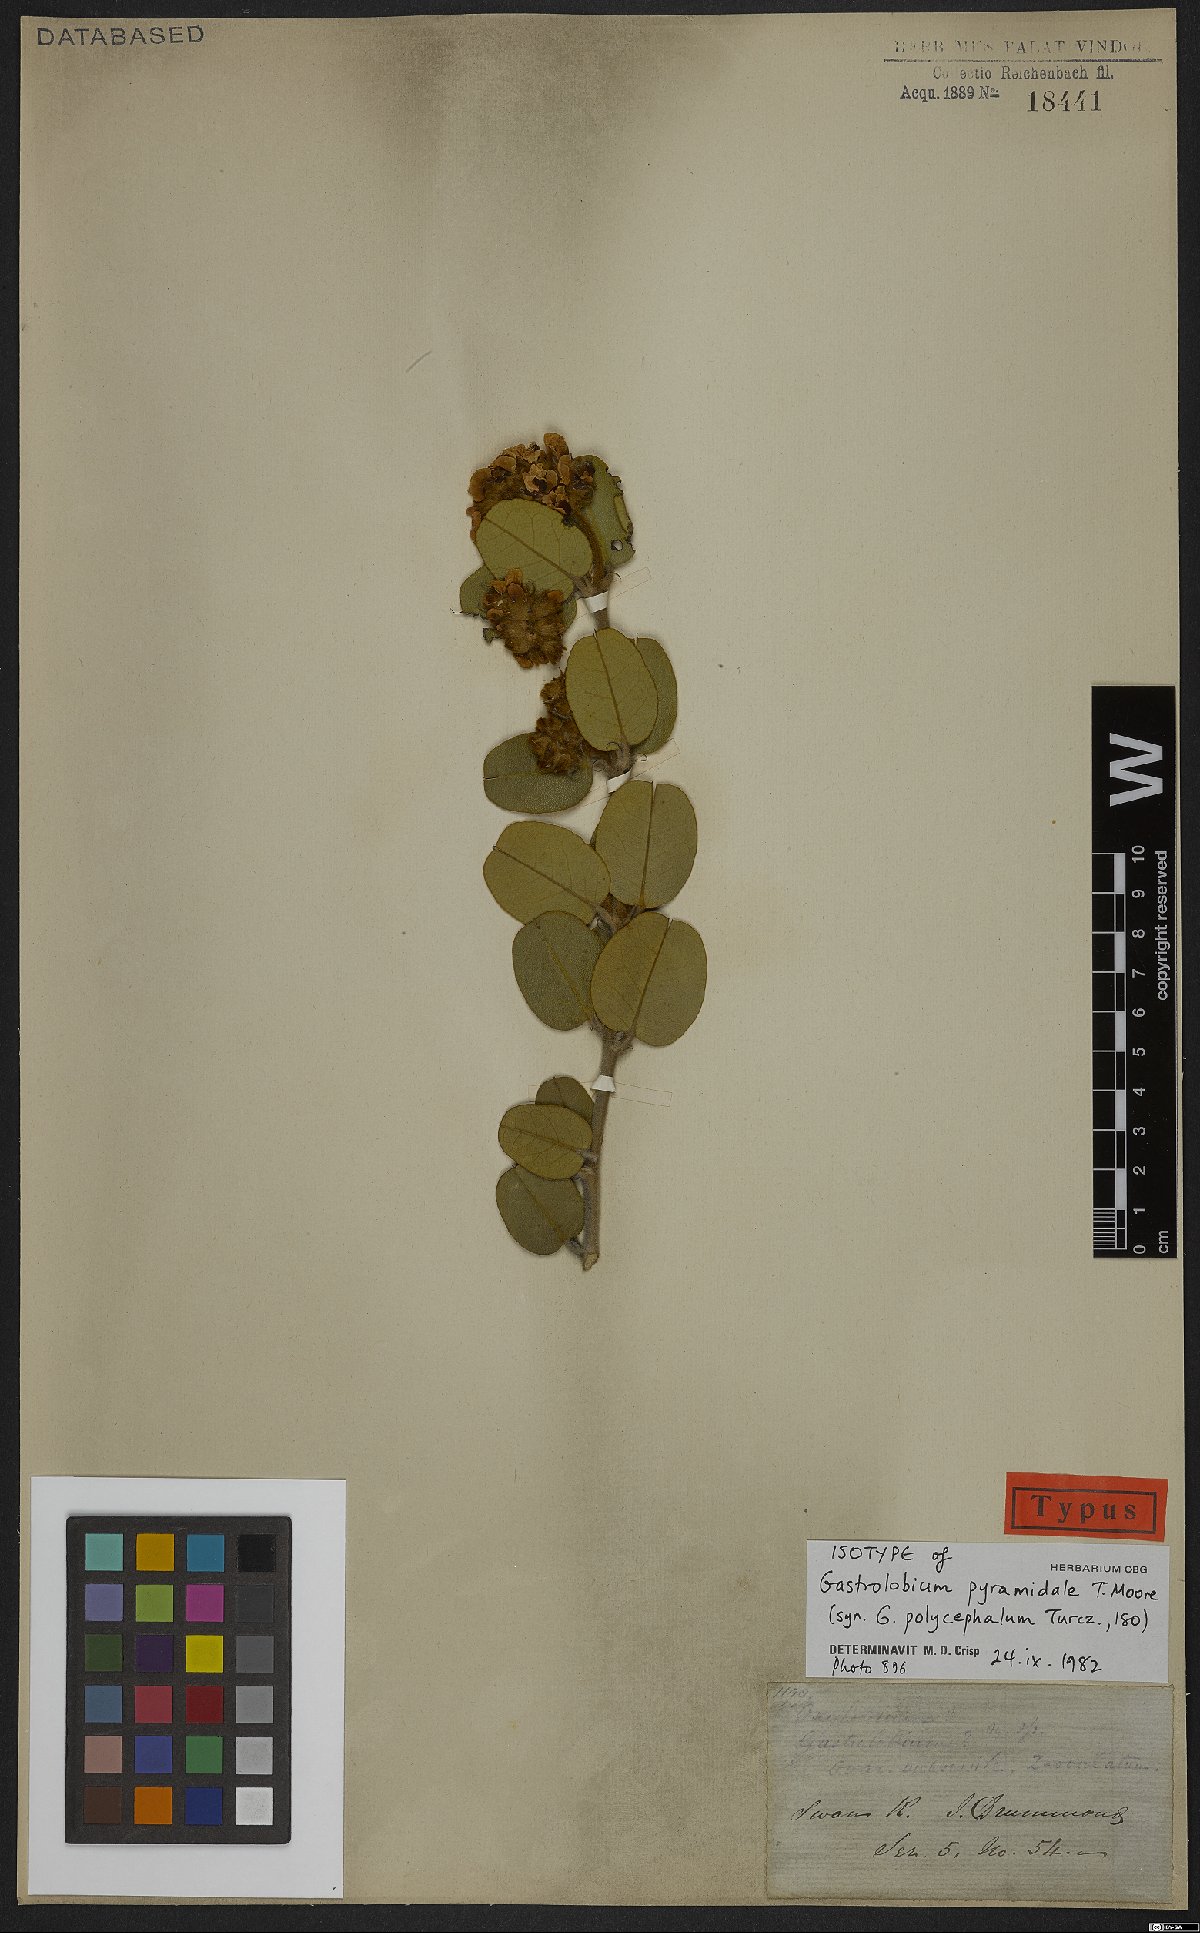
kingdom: Plantae
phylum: Tracheophyta
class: Magnoliopsida
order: Fabales
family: Fabaceae
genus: Gastrolobium
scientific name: Gastrolobium pyramidale
